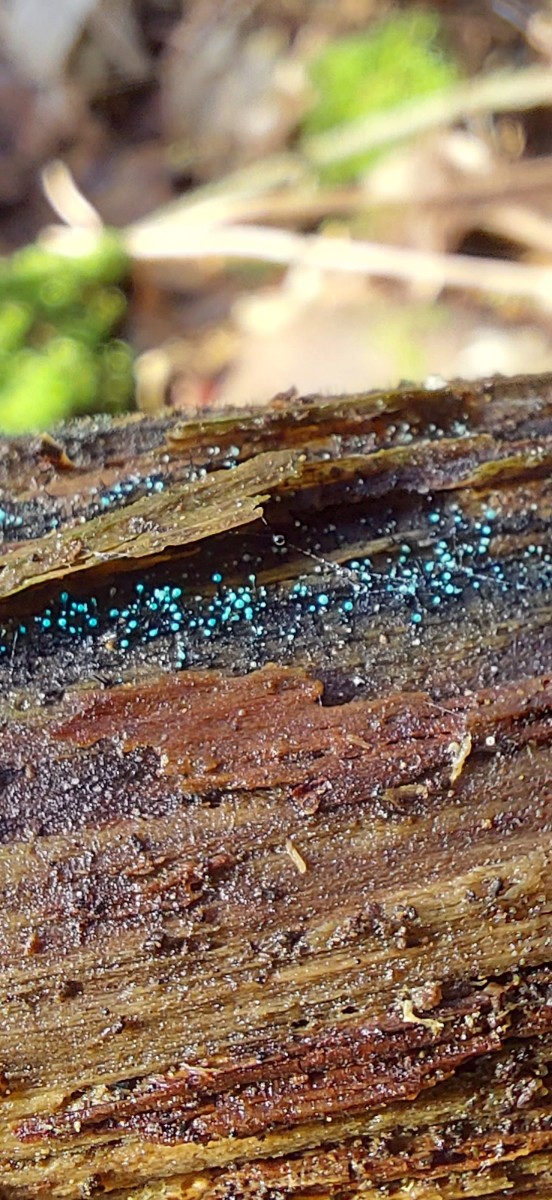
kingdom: Fungi
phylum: Ascomycota
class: Leotiomycetes
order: Leotiales
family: Tympanidaceae
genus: Dendrostilbella
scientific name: Dendrostilbella smaragdina
